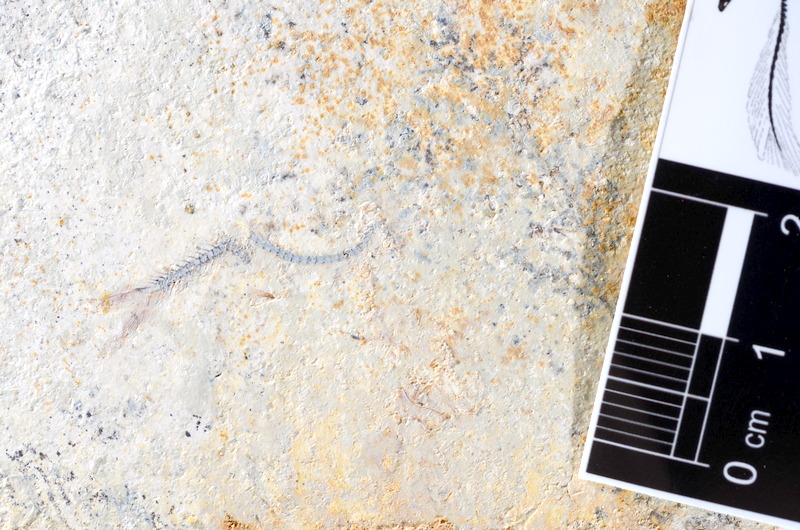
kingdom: Animalia
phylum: Chordata
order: Salmoniformes
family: Orthogonikleithridae
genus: Orthogonikleithrus
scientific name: Orthogonikleithrus hoelli
